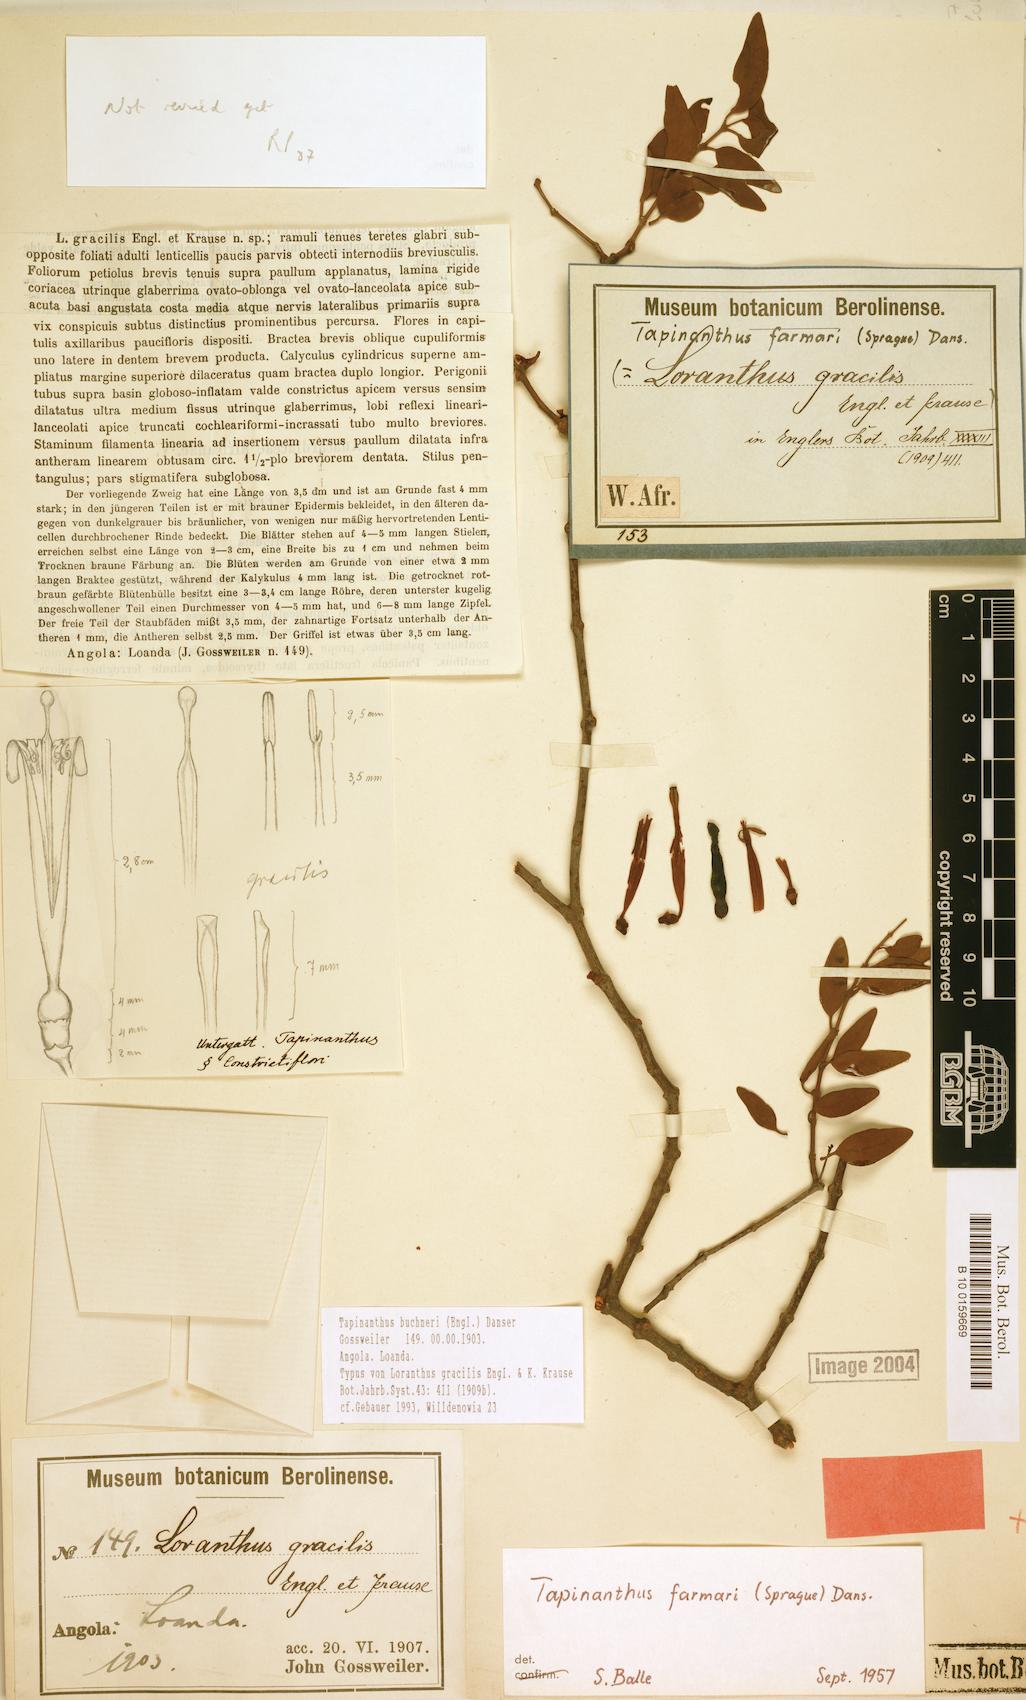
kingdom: Plantae
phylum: Tracheophyta
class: Magnoliopsida
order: Santalales
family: Loranthaceae
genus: Tapinanthus
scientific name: Tapinanthus buchneri
